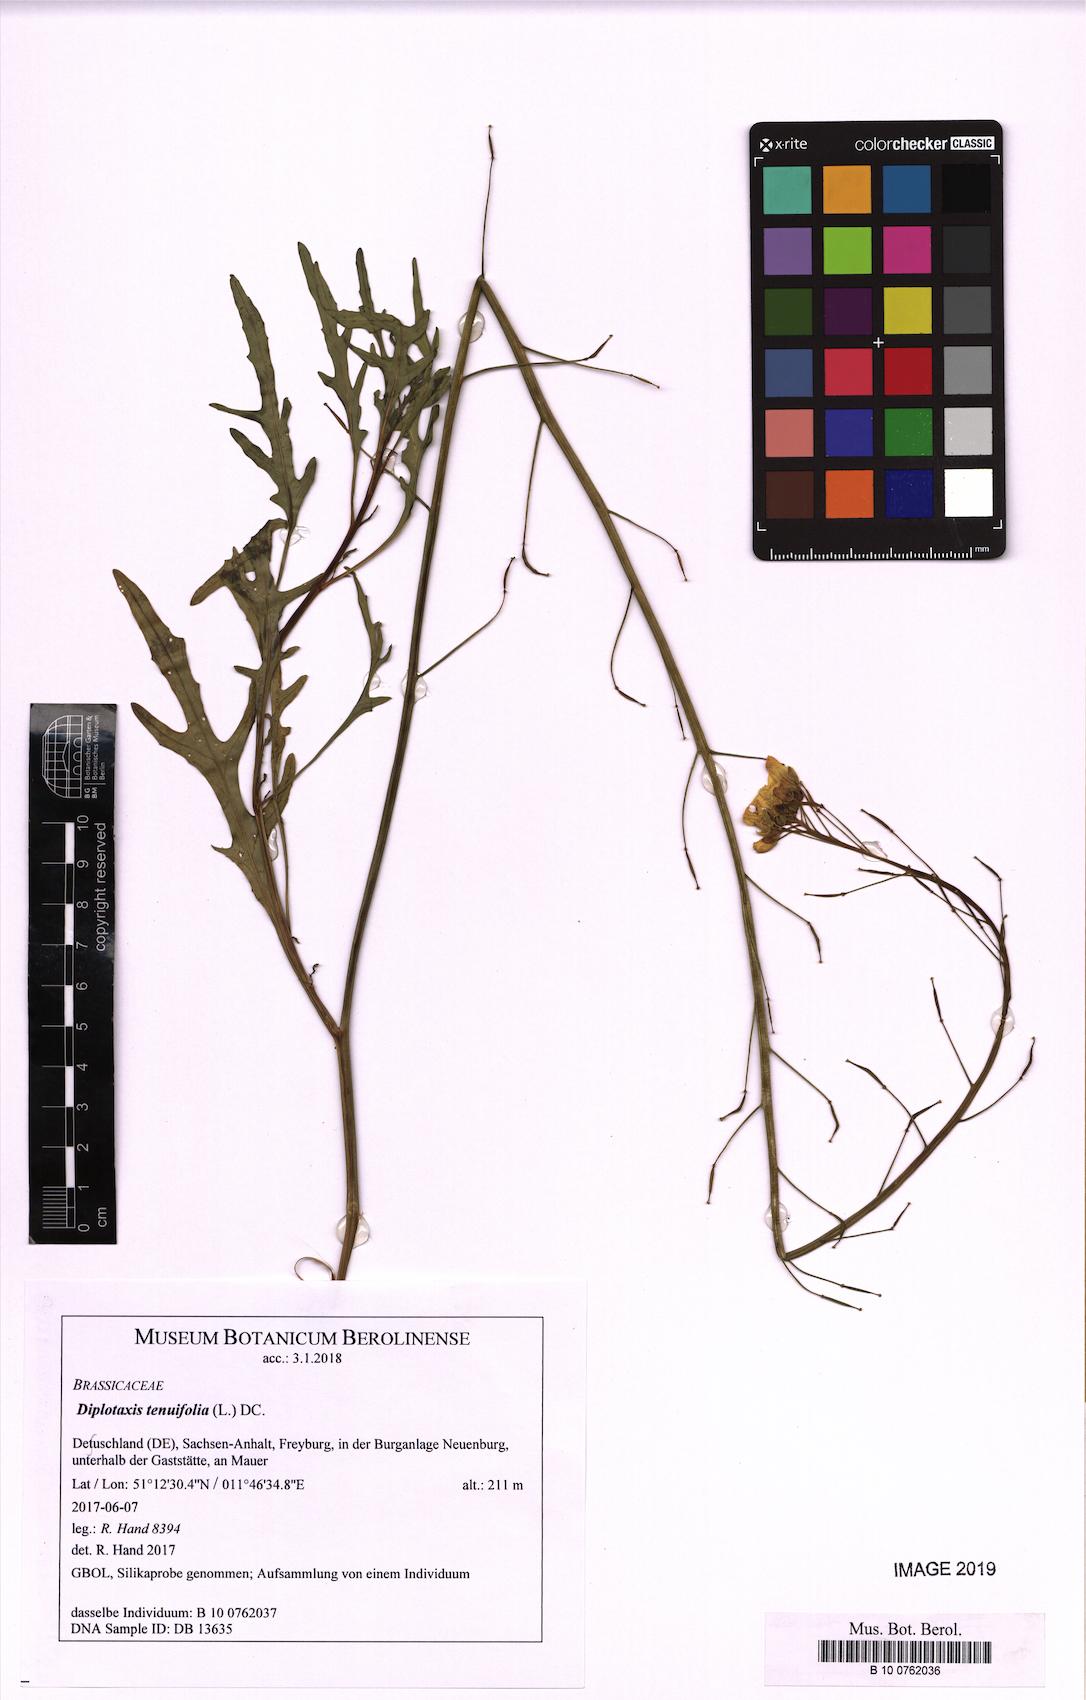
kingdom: Plantae
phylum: Tracheophyta
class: Magnoliopsida
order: Brassicales
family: Brassicaceae
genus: Diplotaxis
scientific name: Diplotaxis tenuifolia
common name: Perennial wall-rocket
